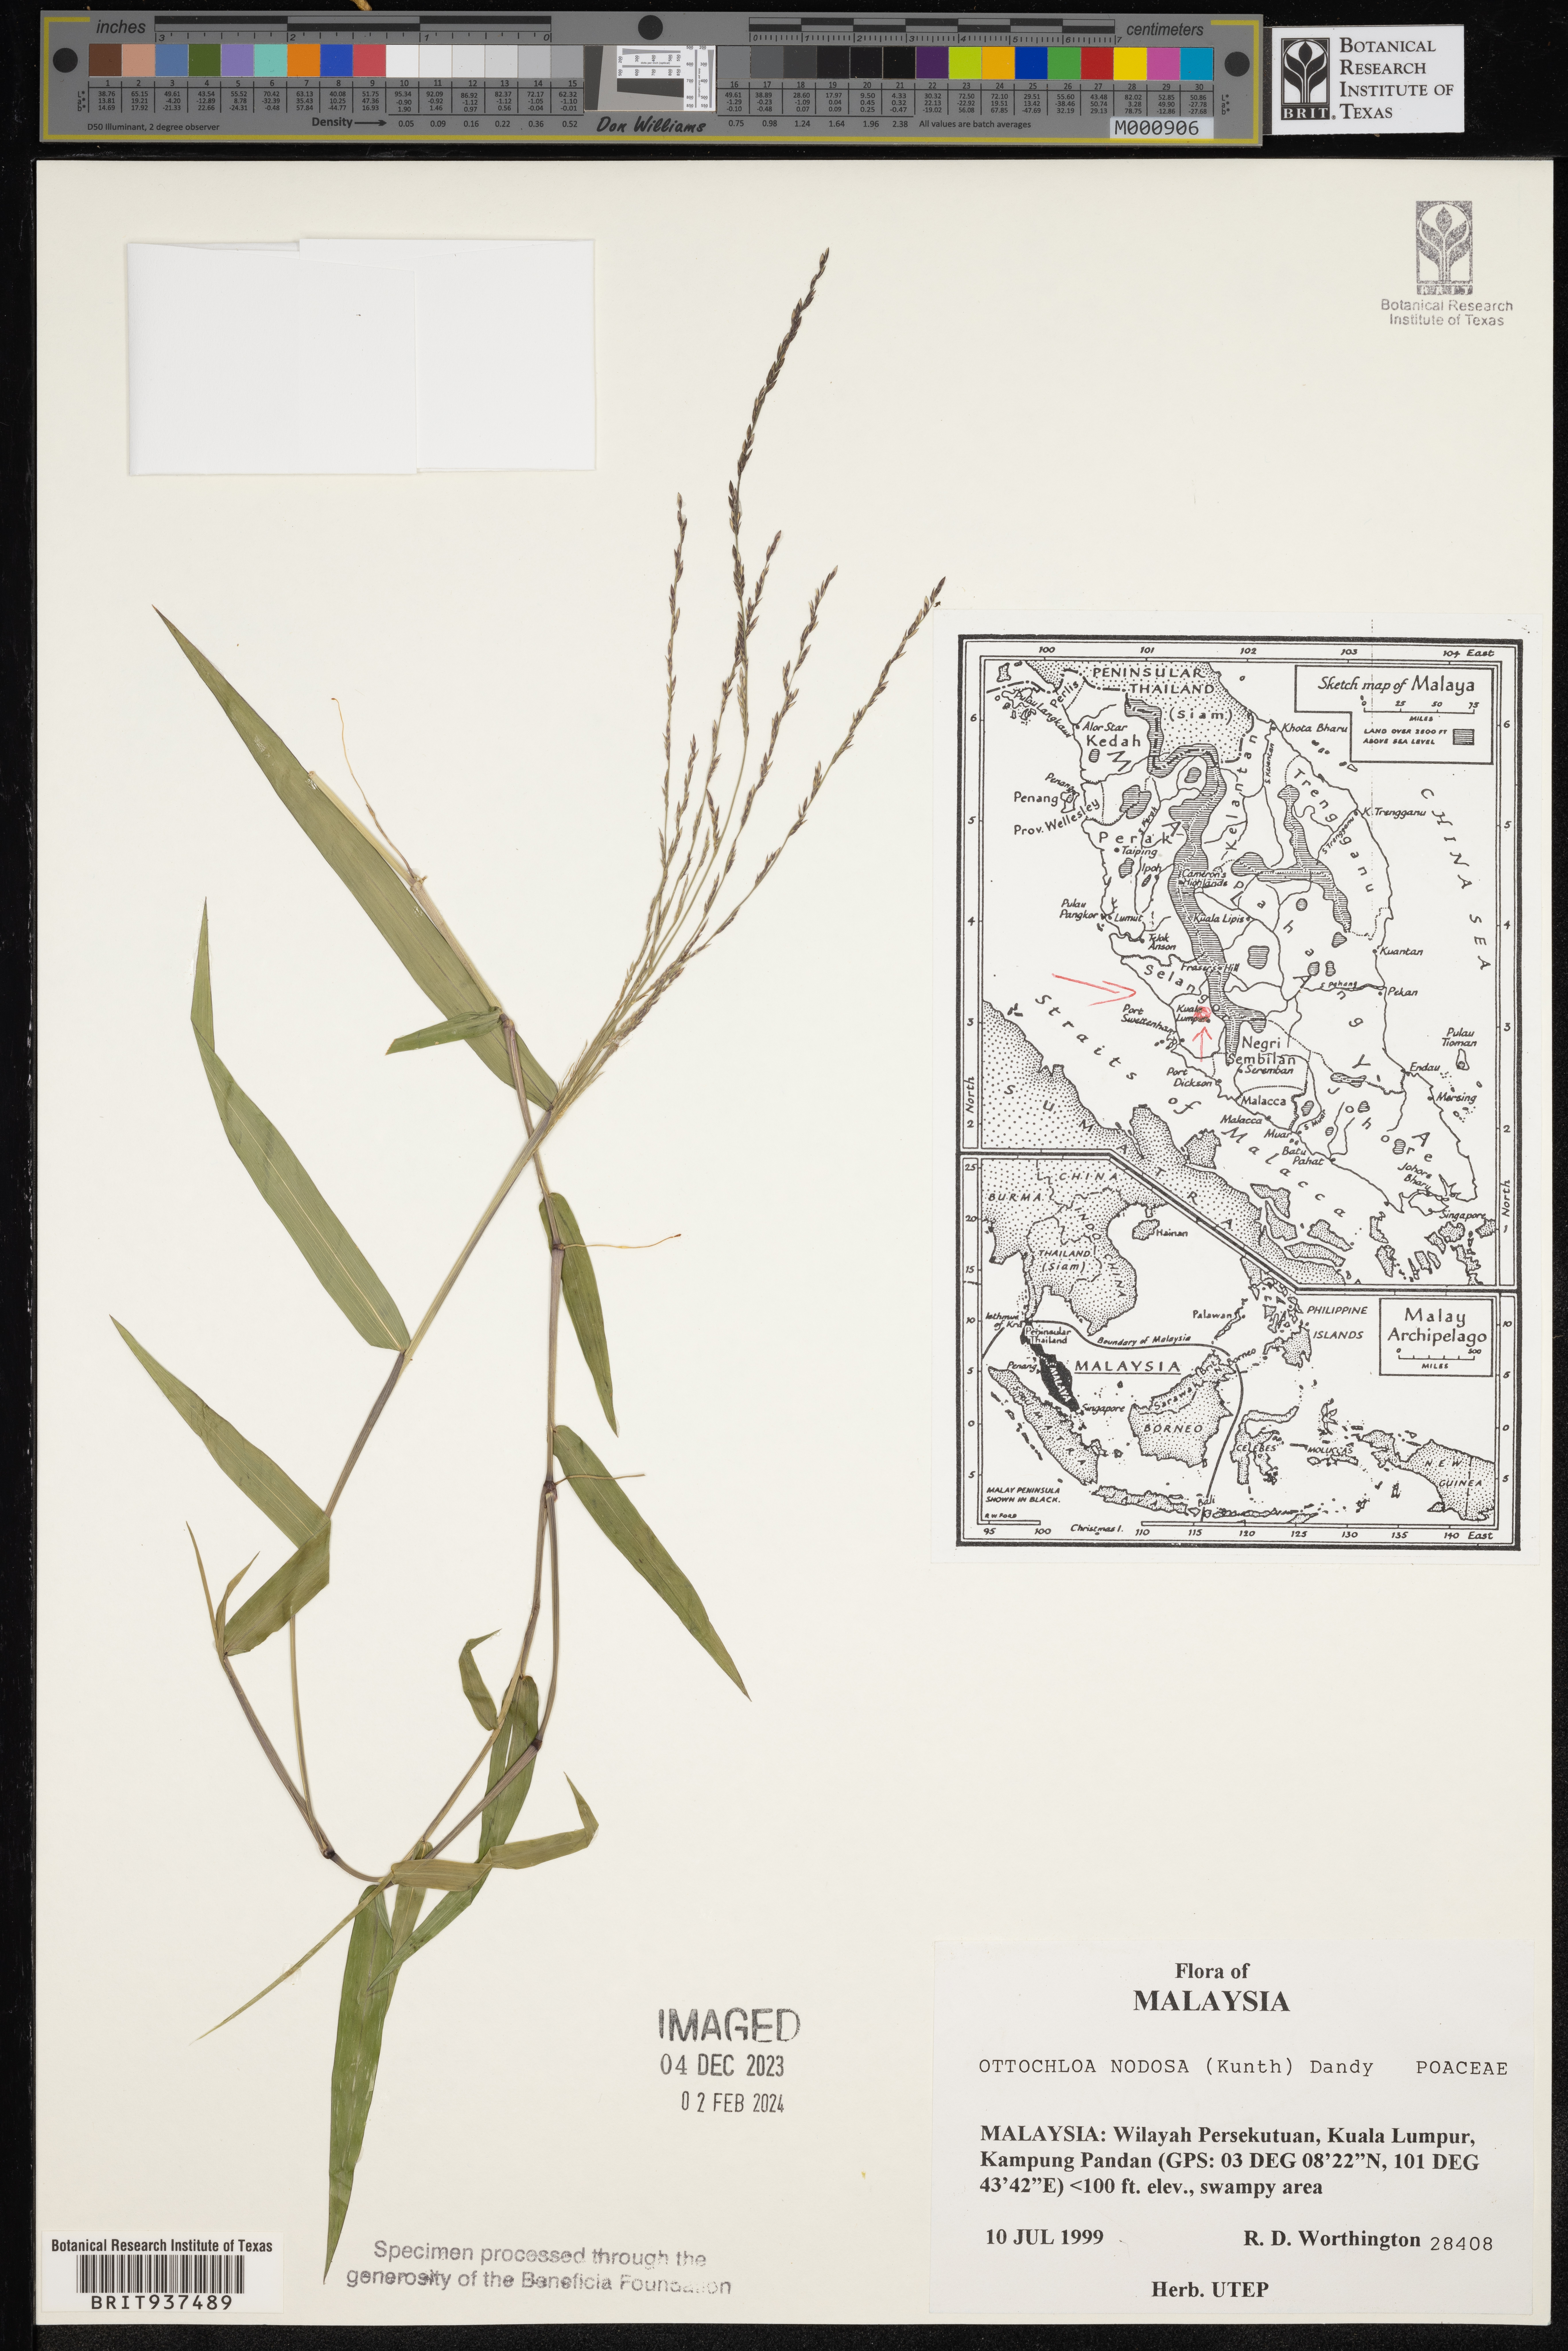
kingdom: Plantae
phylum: Tracheophyta
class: Liliopsida
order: Poales
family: Poaceae
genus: Ottochloa
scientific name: Ottochloa
